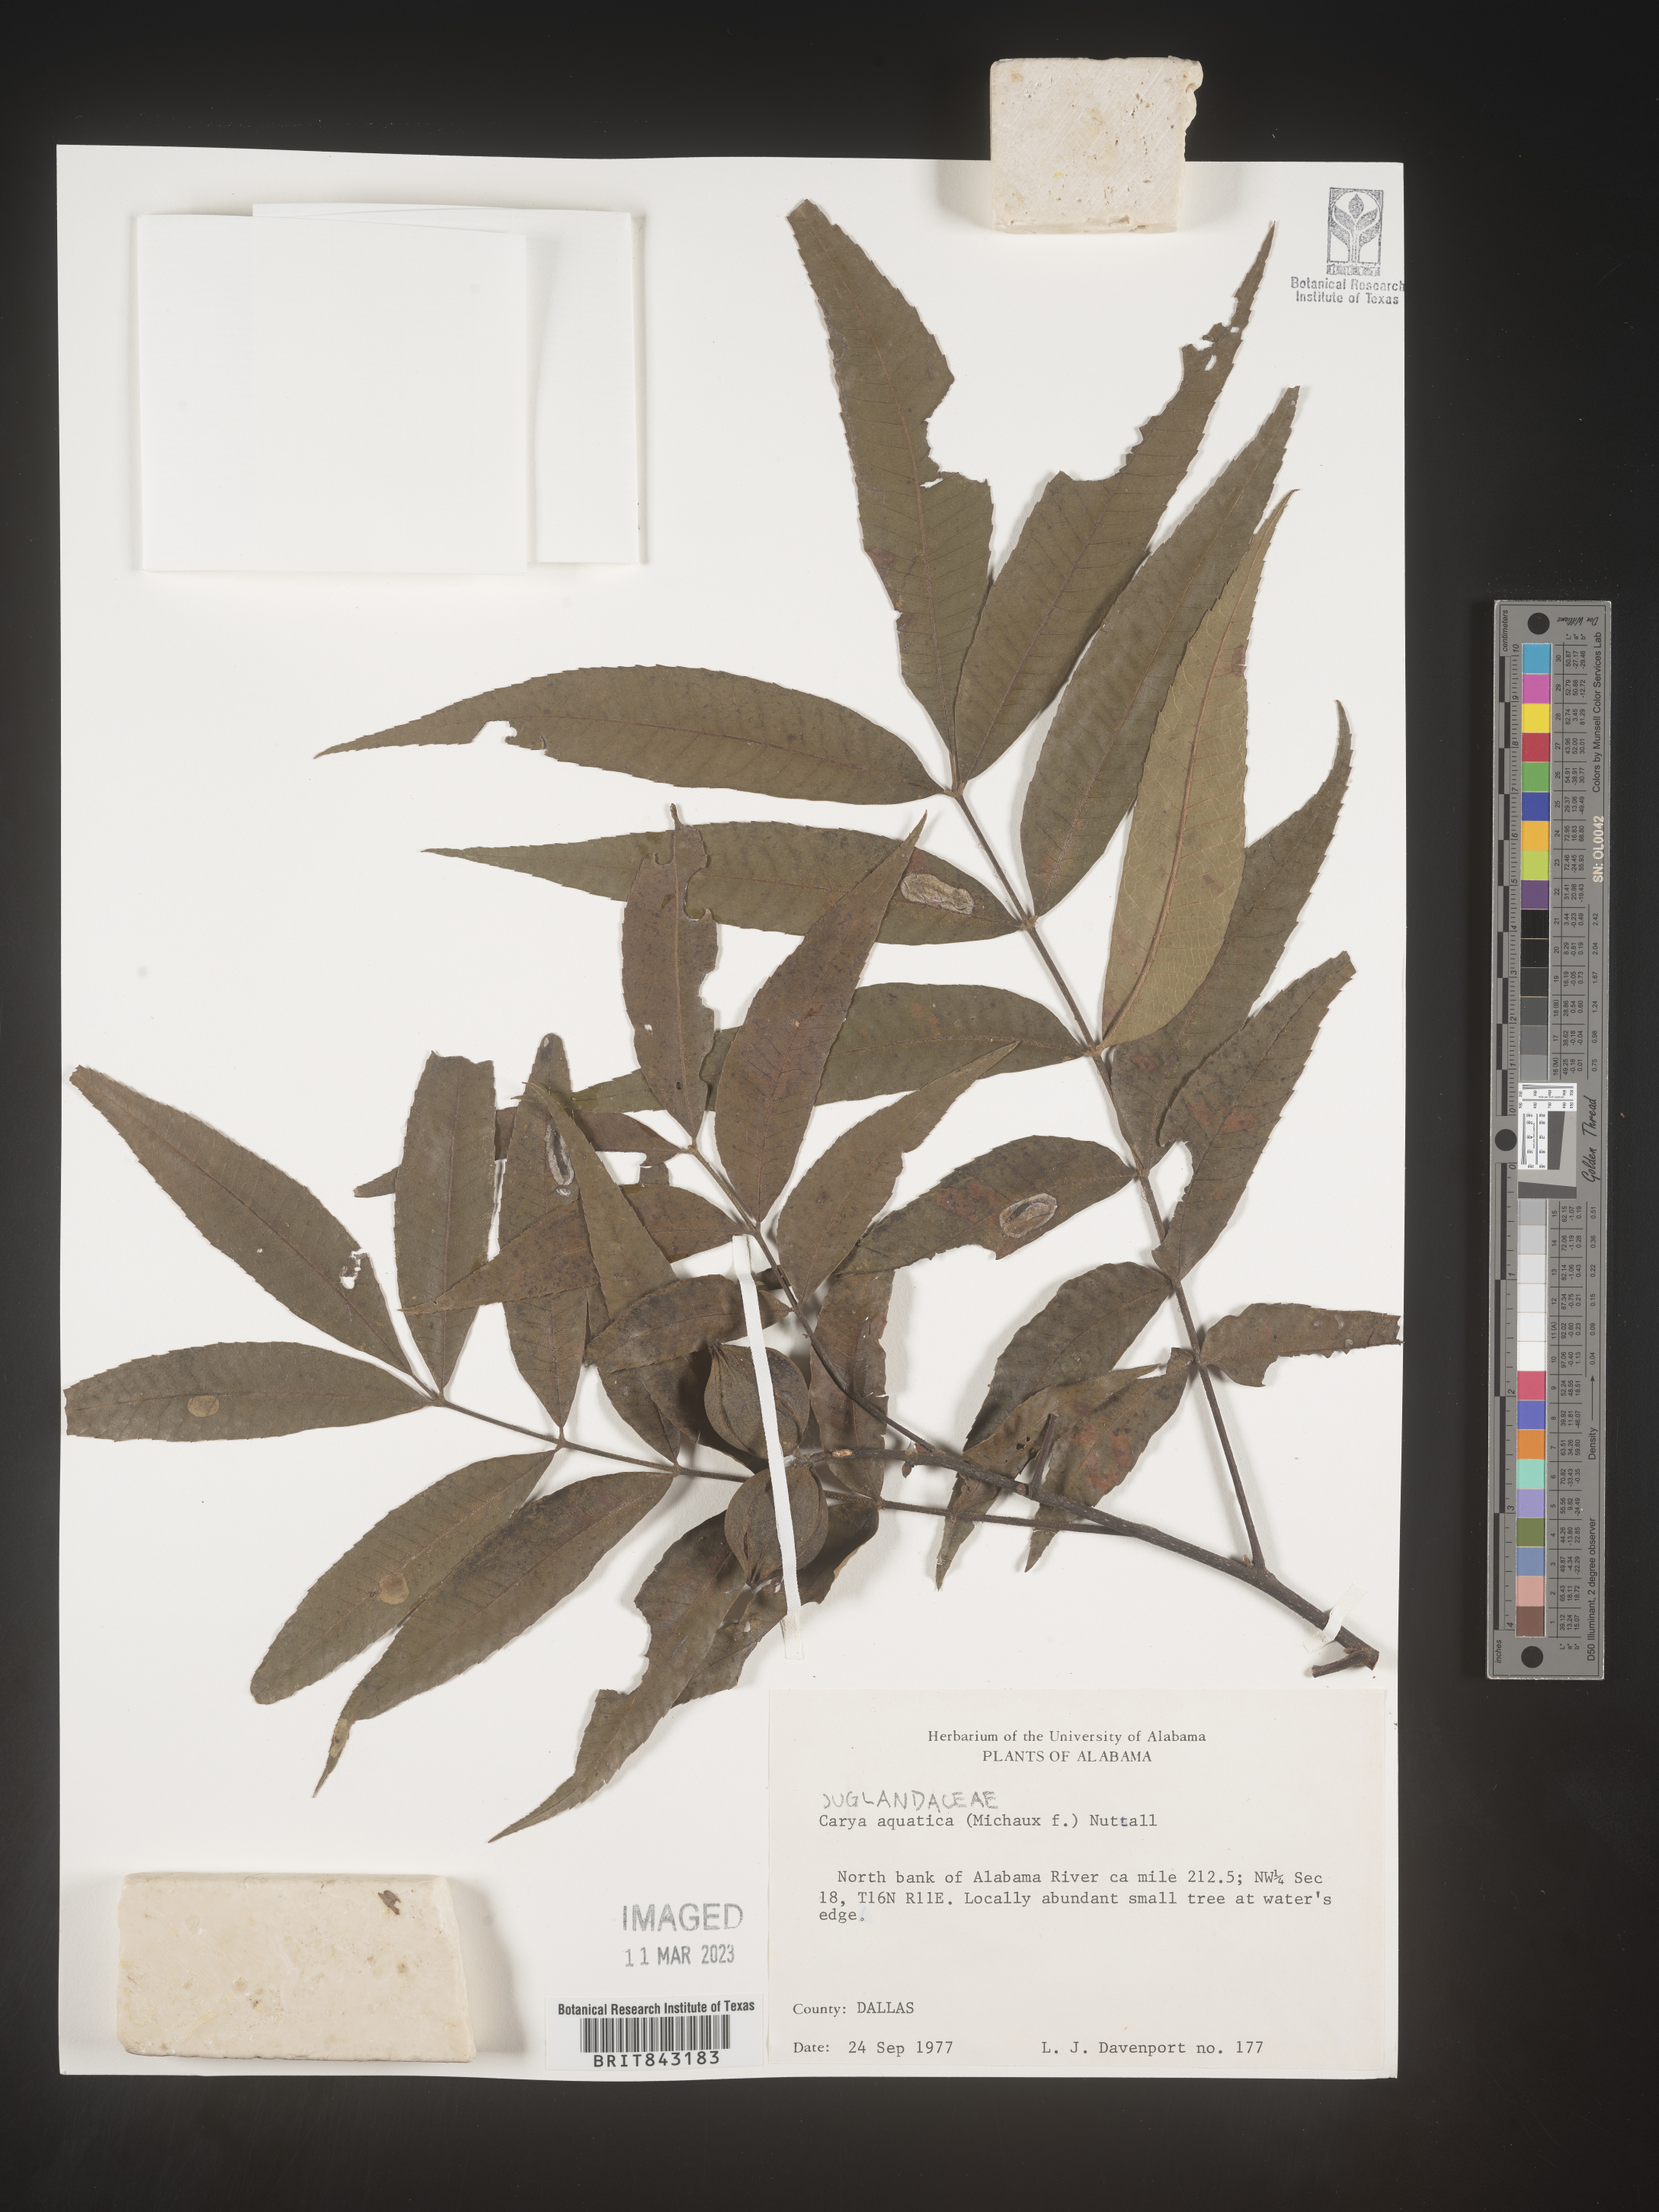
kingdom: Plantae
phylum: Tracheophyta
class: Magnoliopsida
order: Fagales
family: Juglandaceae
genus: Carya
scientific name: Carya aquatica
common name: Water hickory
